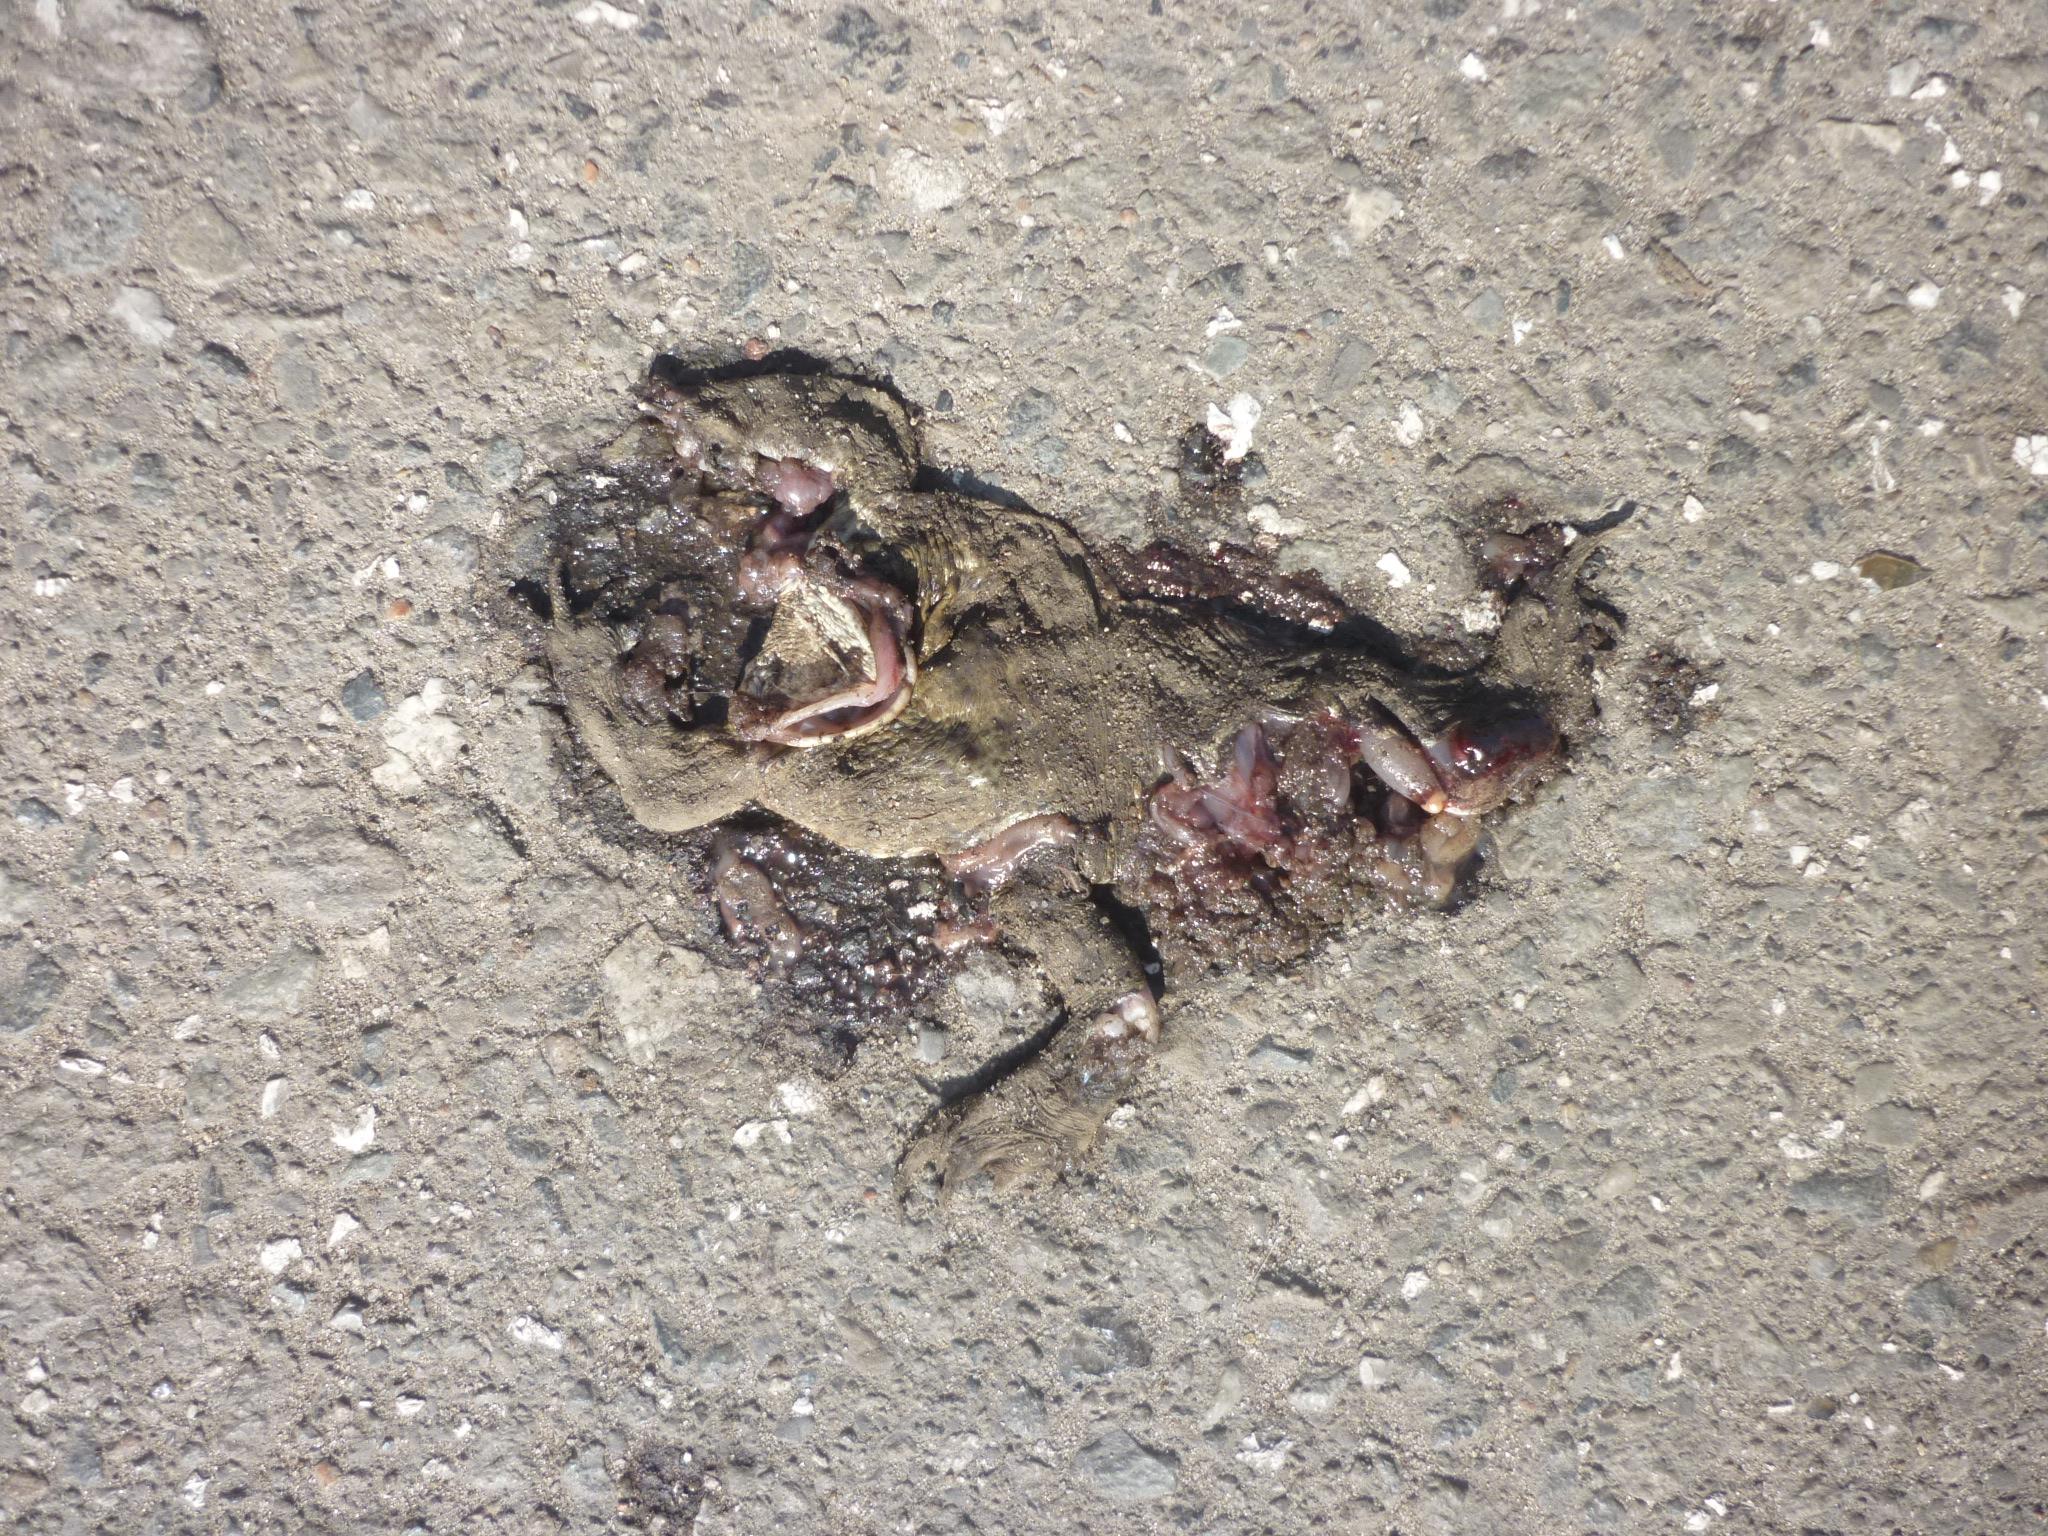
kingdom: Animalia
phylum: Chordata
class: Amphibia
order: Anura
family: Bufonidae
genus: Bufo
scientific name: Bufo bufo
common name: Common toad
